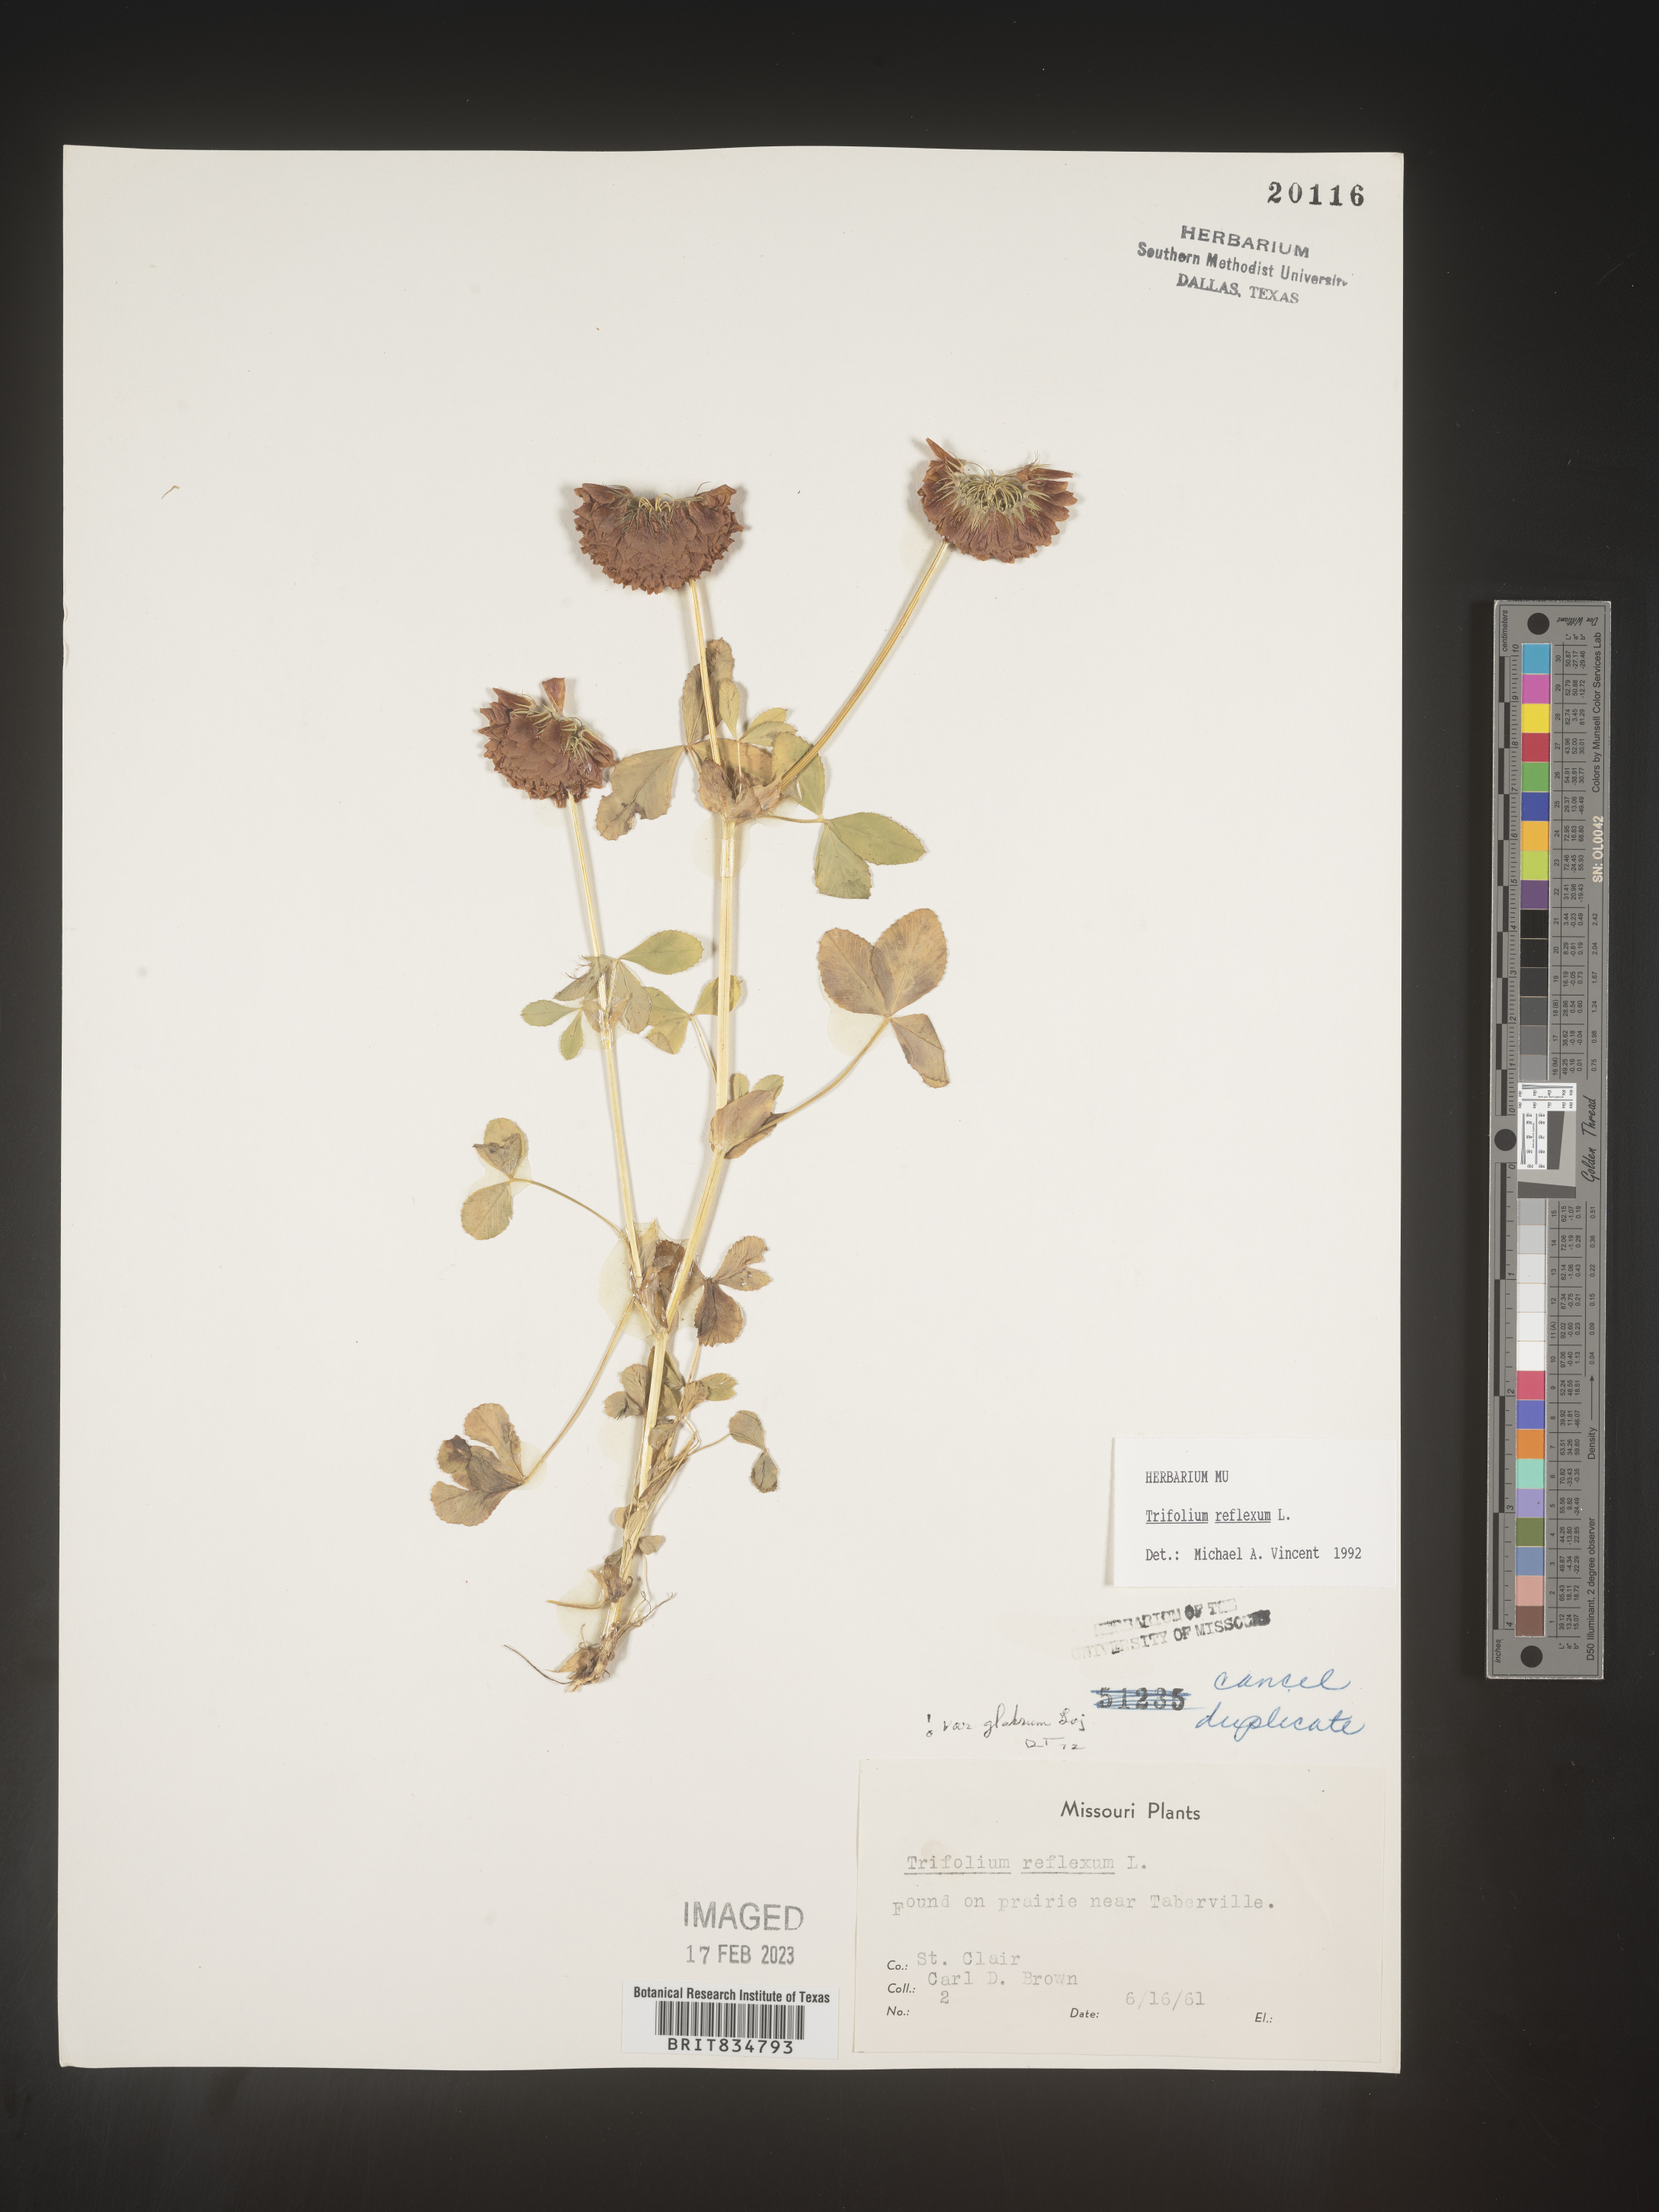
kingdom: Plantae
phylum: Tracheophyta
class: Magnoliopsida
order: Fabales
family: Fabaceae
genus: Trifolium
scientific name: Trifolium reflexum
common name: Buffalo clover
